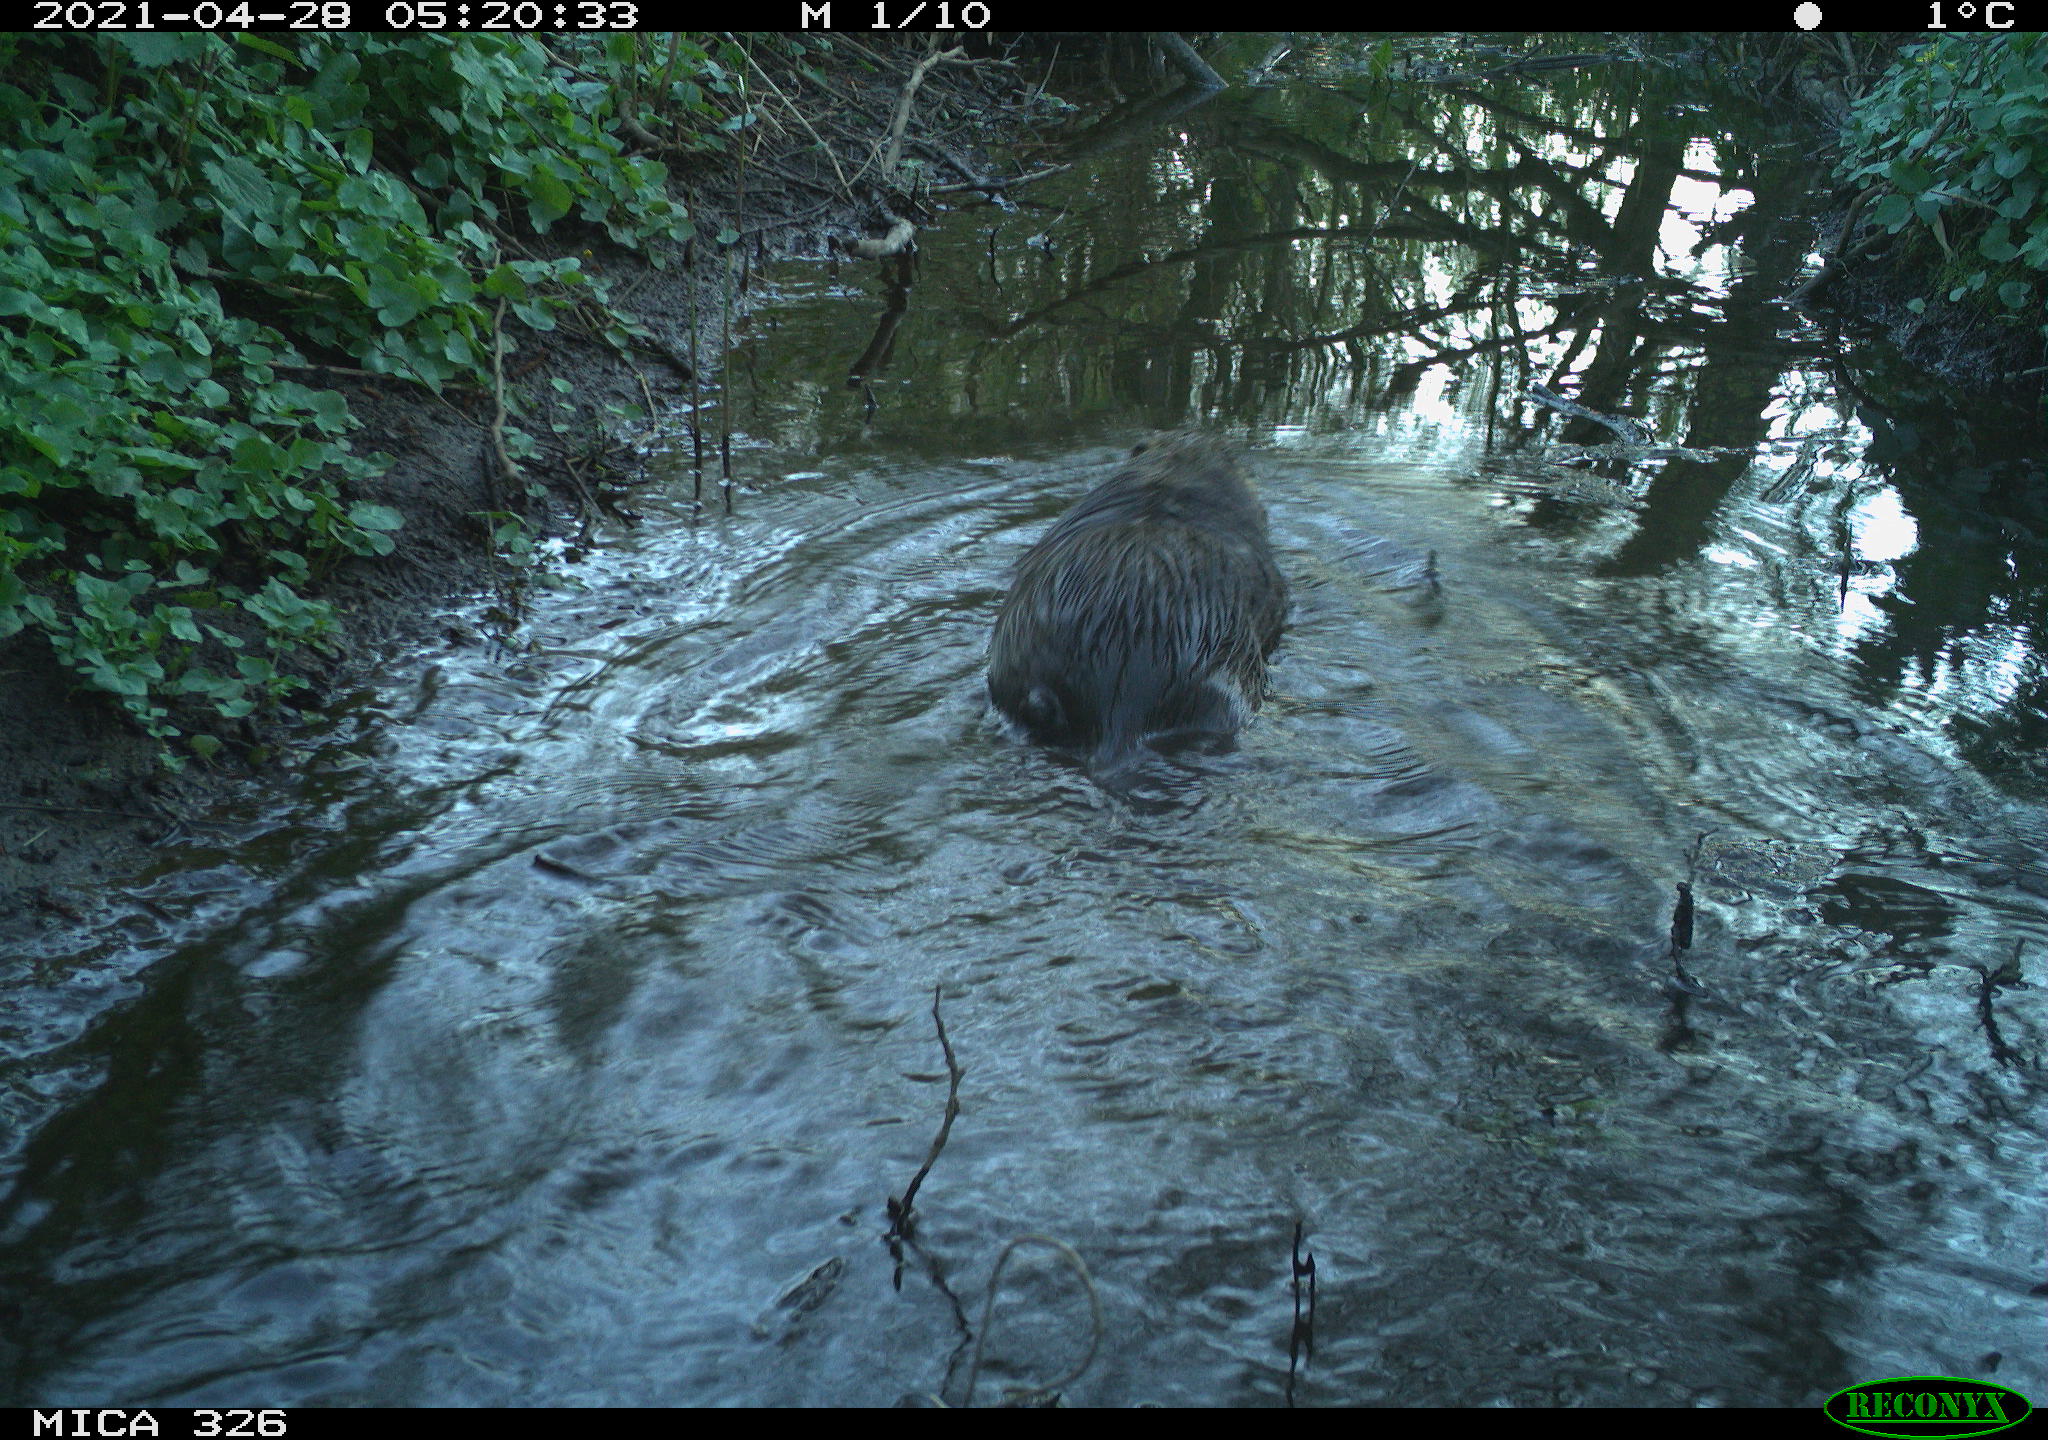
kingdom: Animalia
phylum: Chordata
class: Mammalia
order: Rodentia
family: Myocastoridae
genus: Myocastor
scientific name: Myocastor coypus
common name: Coypu
